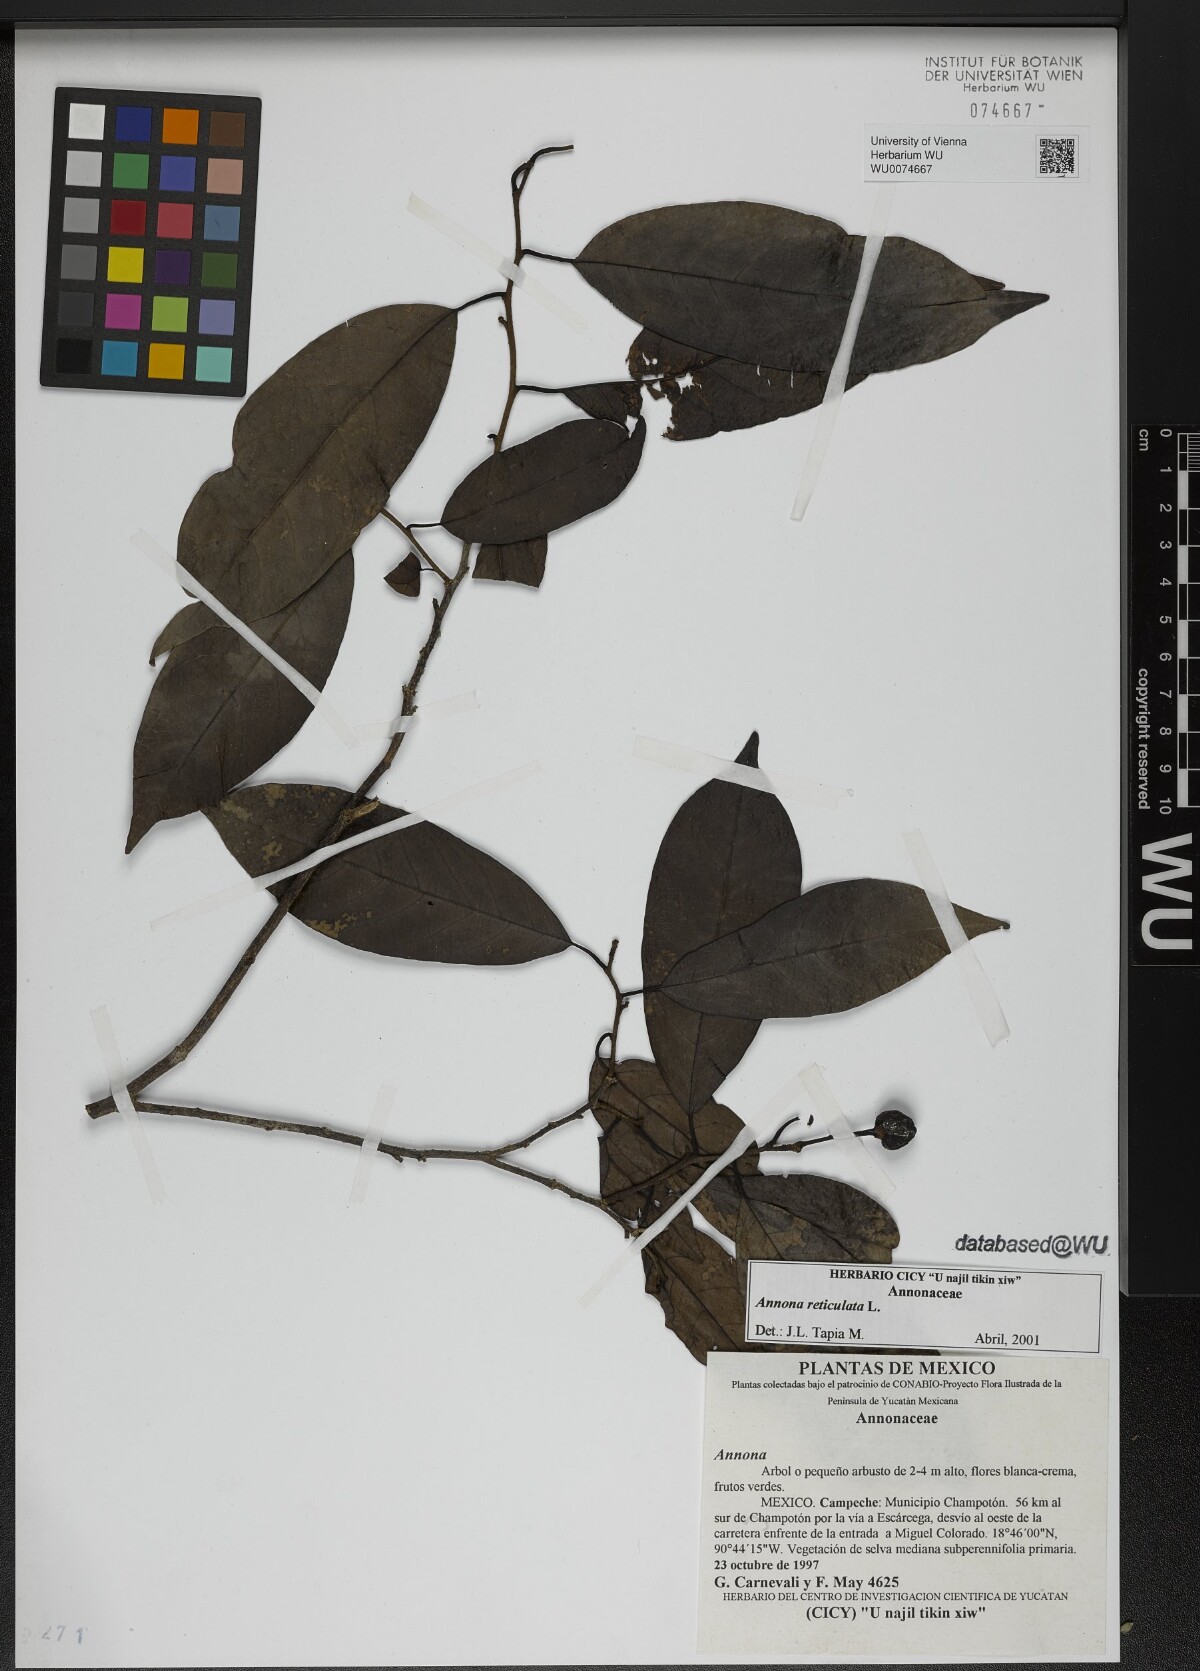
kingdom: Plantae
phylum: Tracheophyta
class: Magnoliopsida
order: Magnoliales
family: Annonaceae
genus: Annona
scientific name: Annona reticulata
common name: Custard apple
